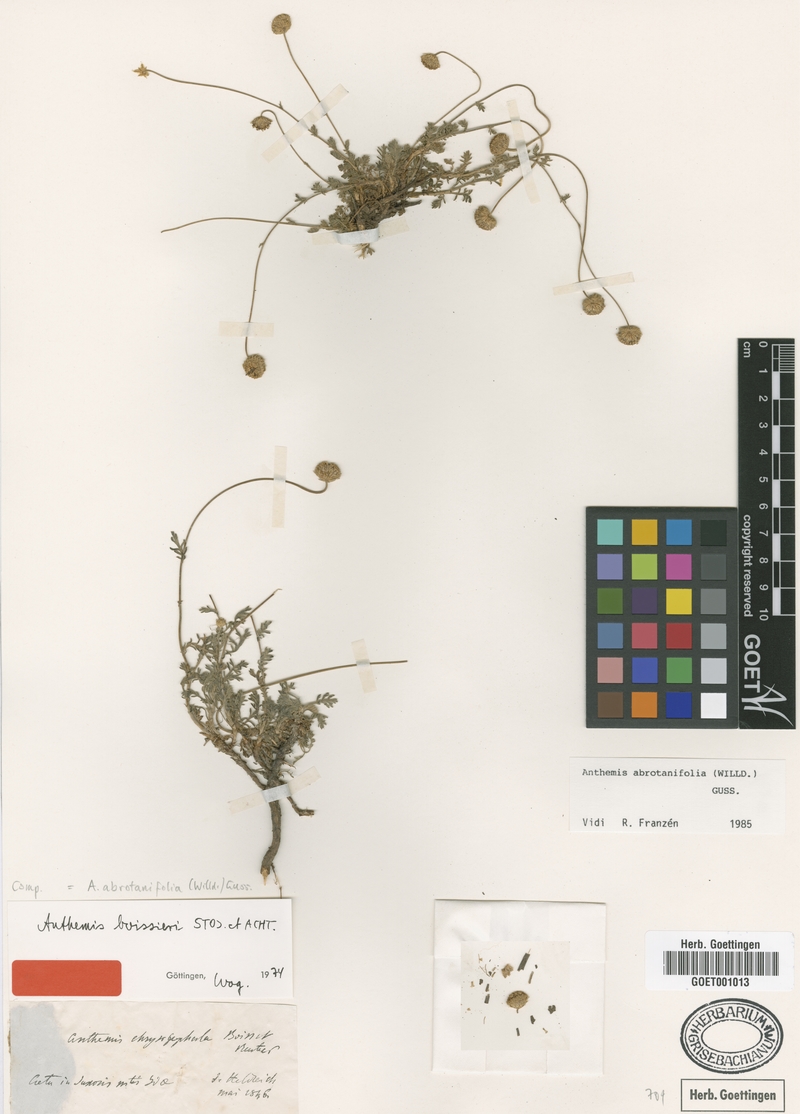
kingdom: Plantae
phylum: Tracheophyta
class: Magnoliopsida
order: Asterales
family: Asteraceae
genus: Anthemis
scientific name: Anthemis abrotanifolia
